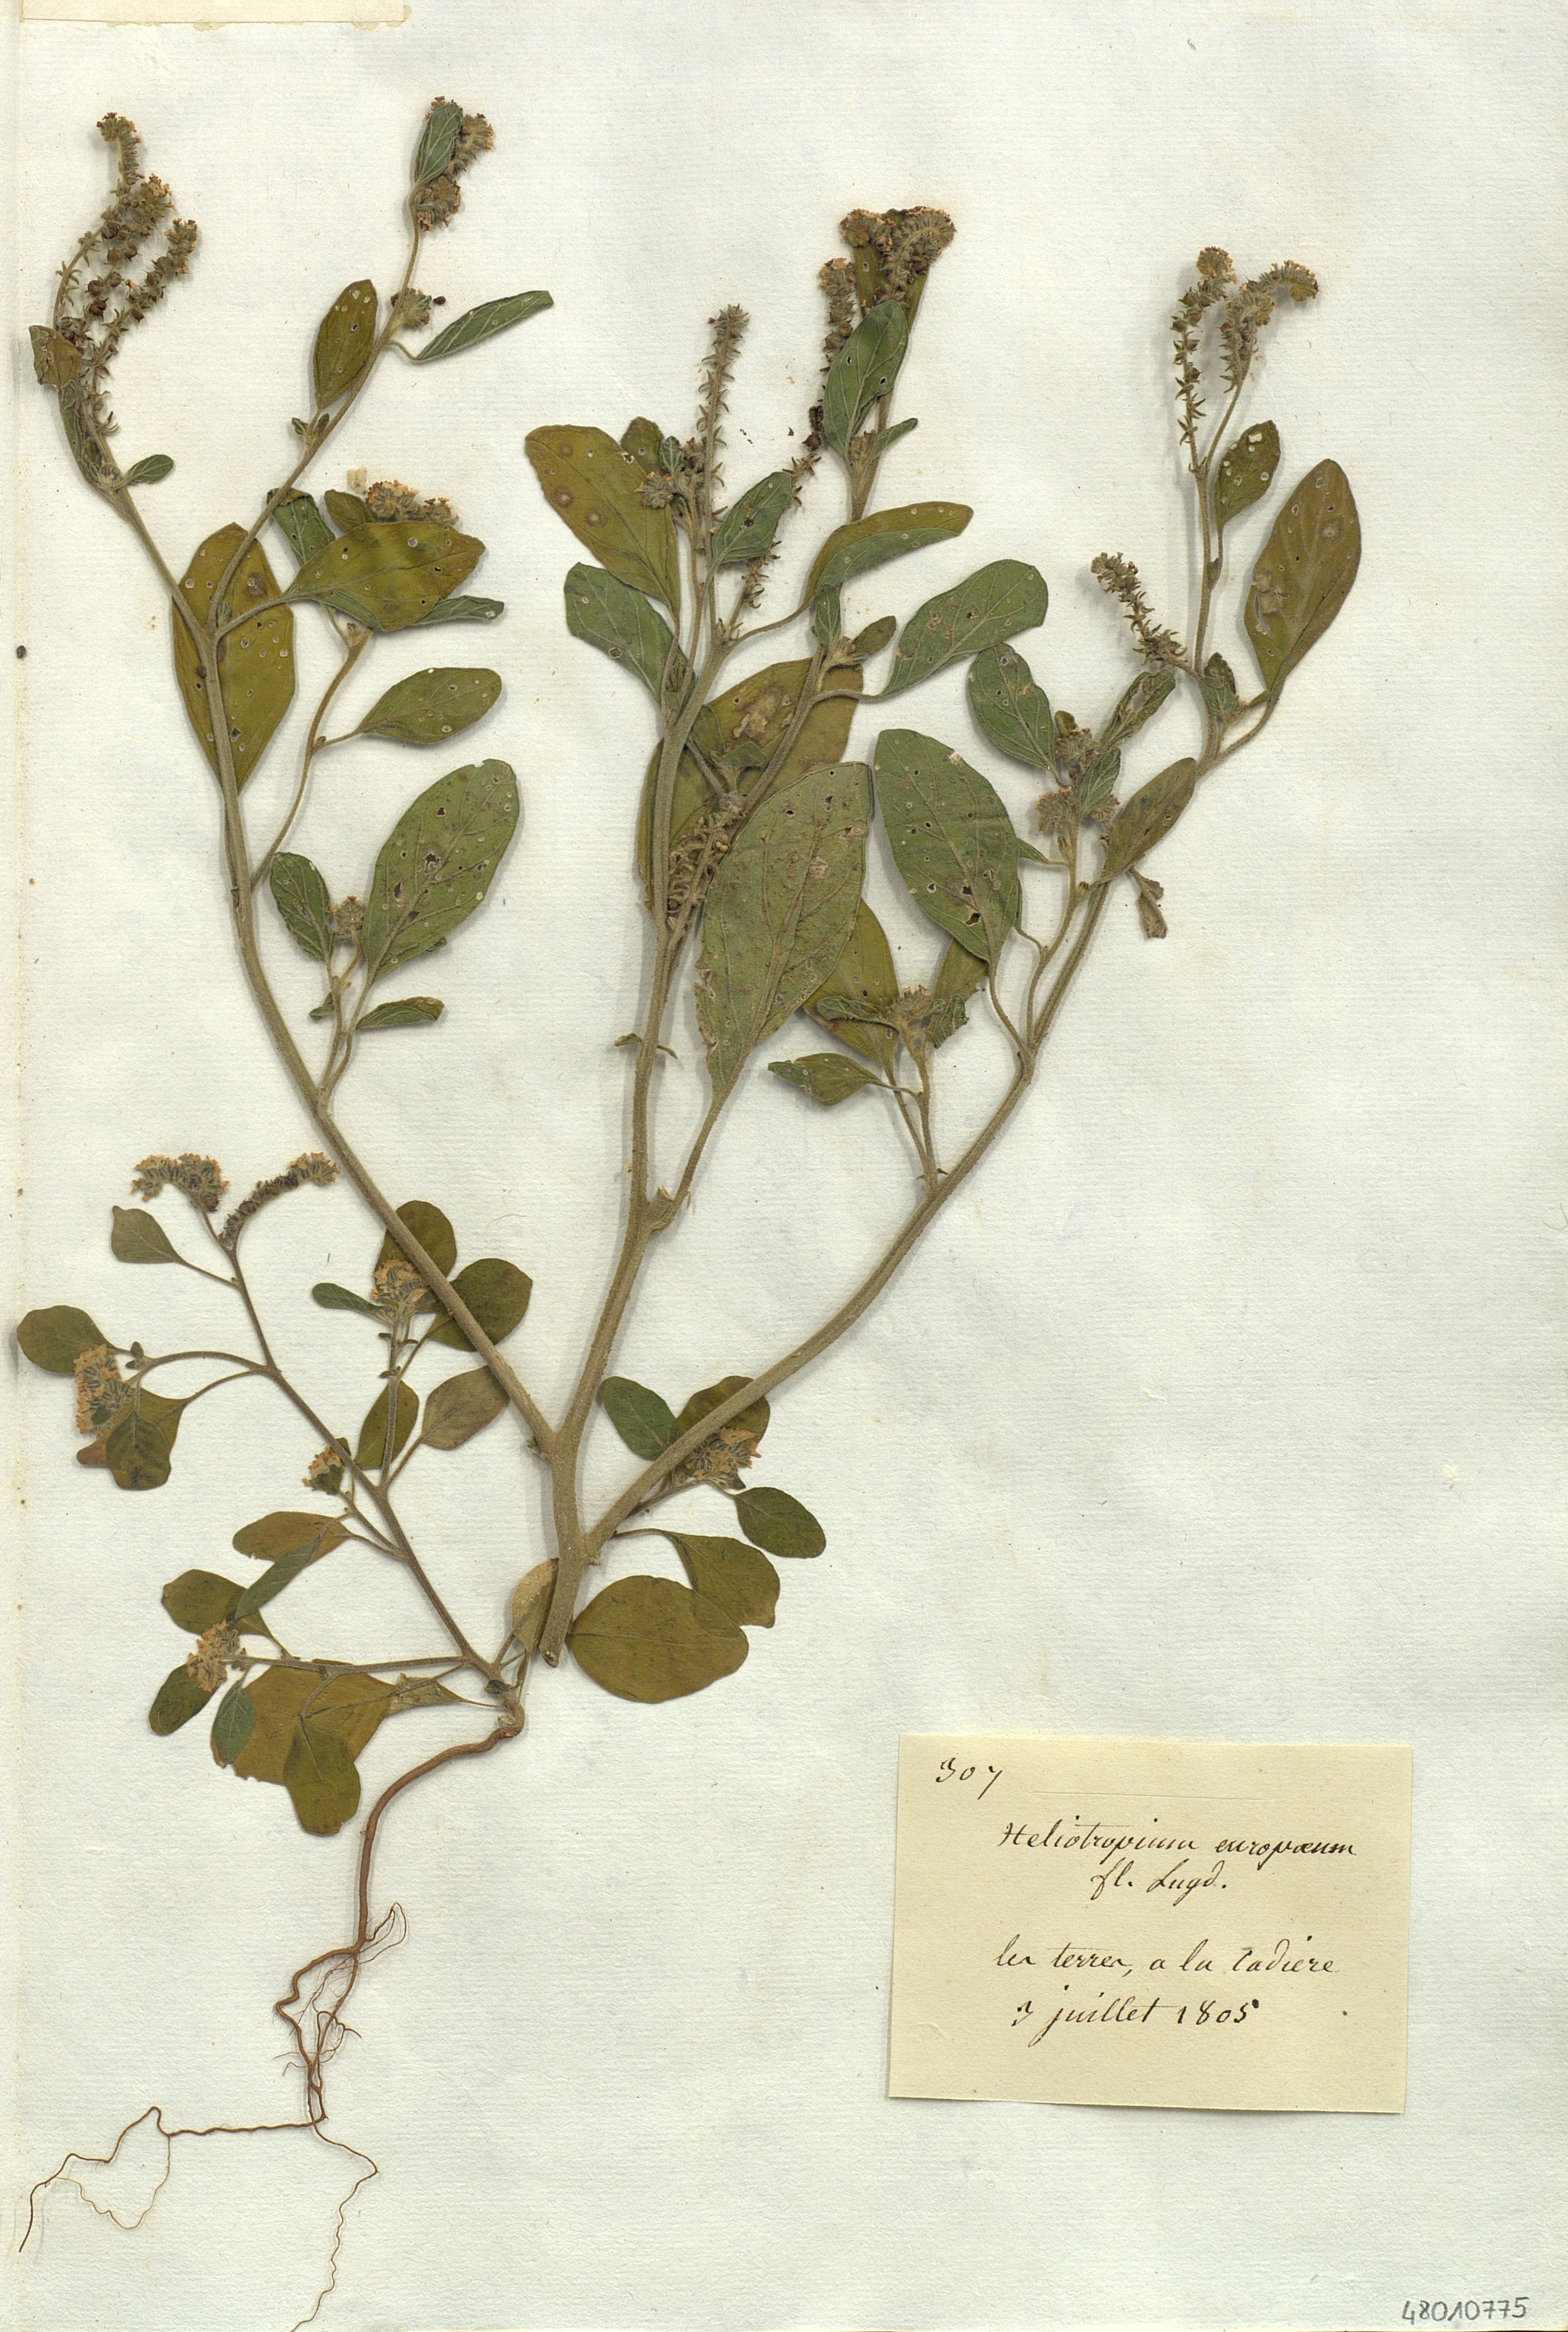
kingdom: Plantae
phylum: Tracheophyta
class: Magnoliopsida
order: Boraginales
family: Heliotropiaceae
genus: Heliotropium
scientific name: Heliotropium europaeum
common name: European heliotrope
